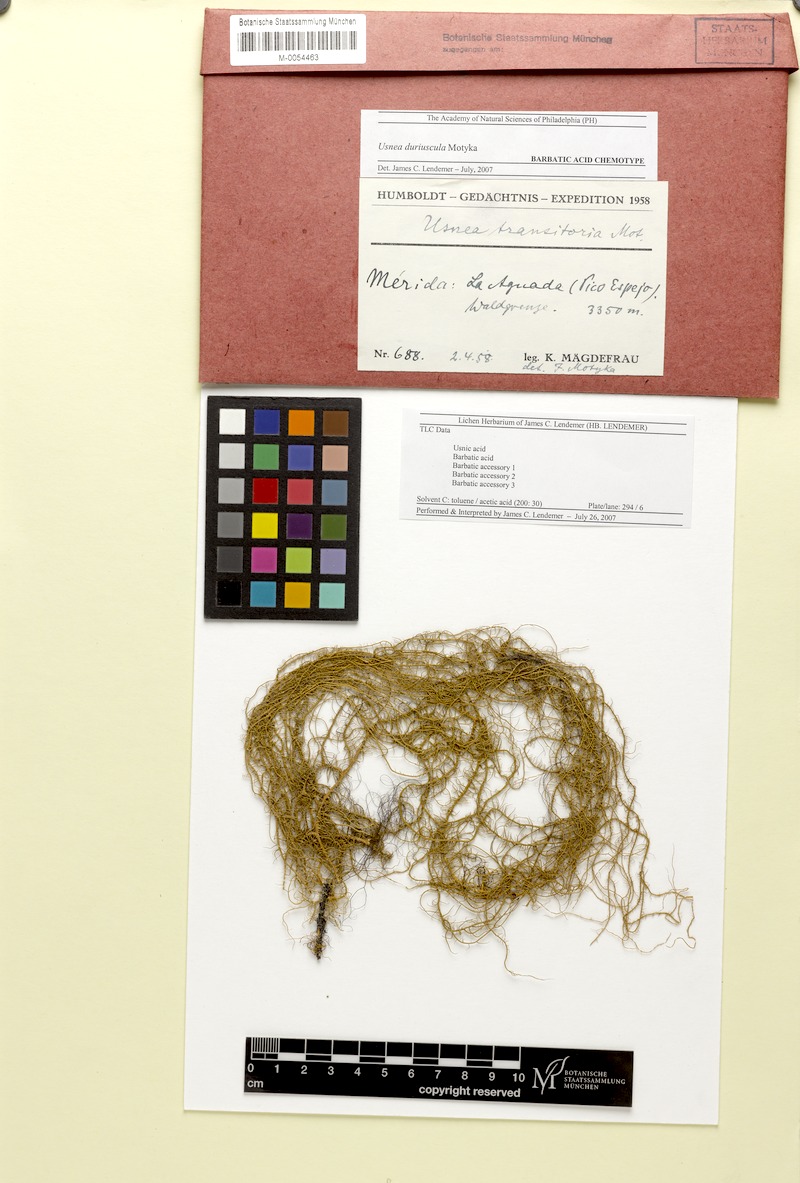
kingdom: Fungi
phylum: Ascomycota
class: Lecanoromycetes
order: Lecanorales
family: Parmeliaceae
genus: Usnea
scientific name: Usnea duriuscula
